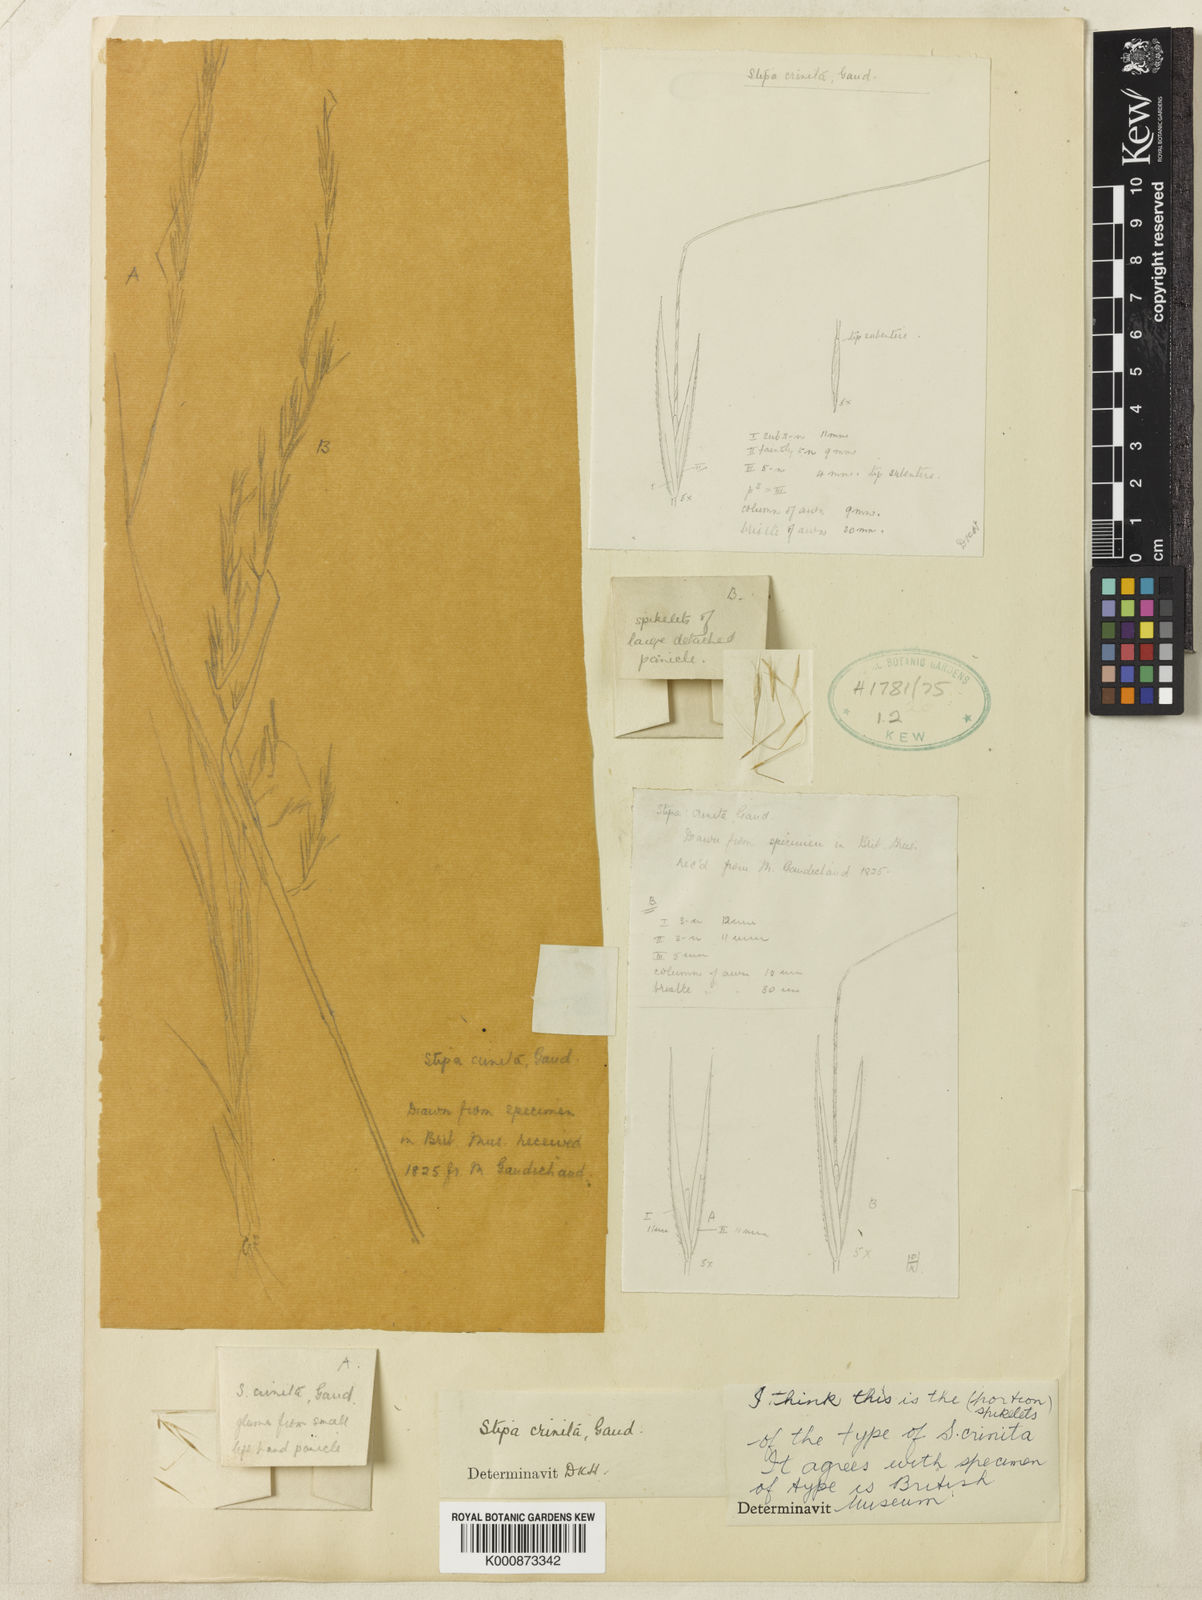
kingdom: Plantae
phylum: Tracheophyta
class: Liliopsida
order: Poales
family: Poaceae
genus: Austrostipa
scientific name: Austrostipa crinita
